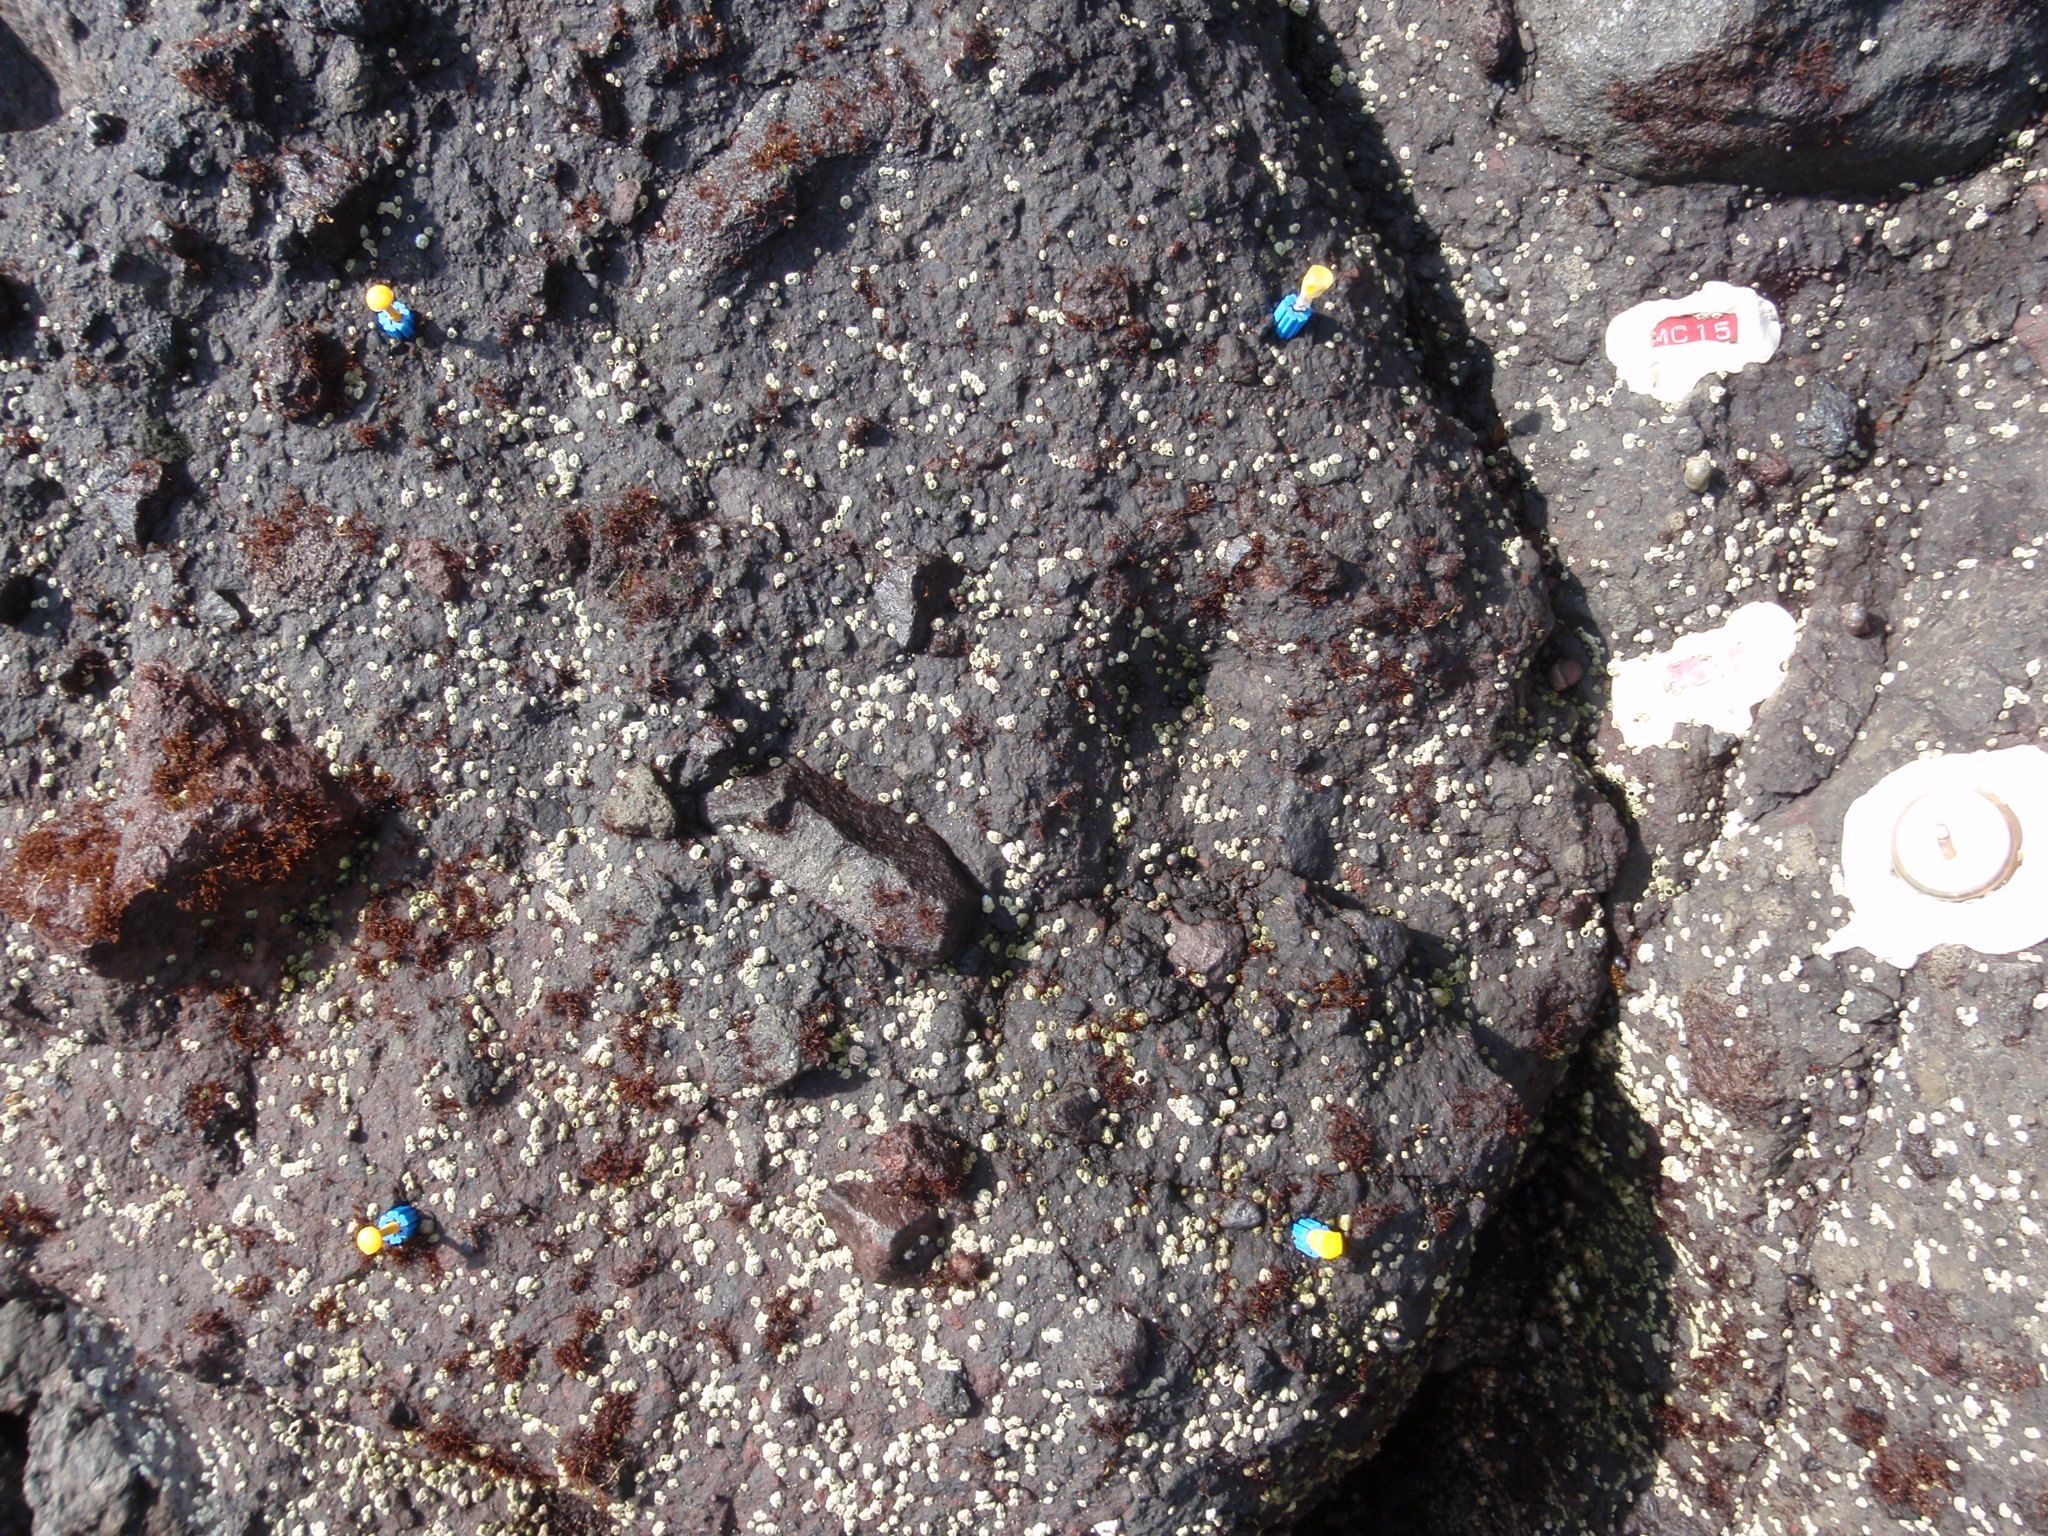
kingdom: Animalia
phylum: Arthropoda
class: Maxillopoda
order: Sessilia
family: Chthamalidae
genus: Chthamalus
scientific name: Chthamalus dalli
